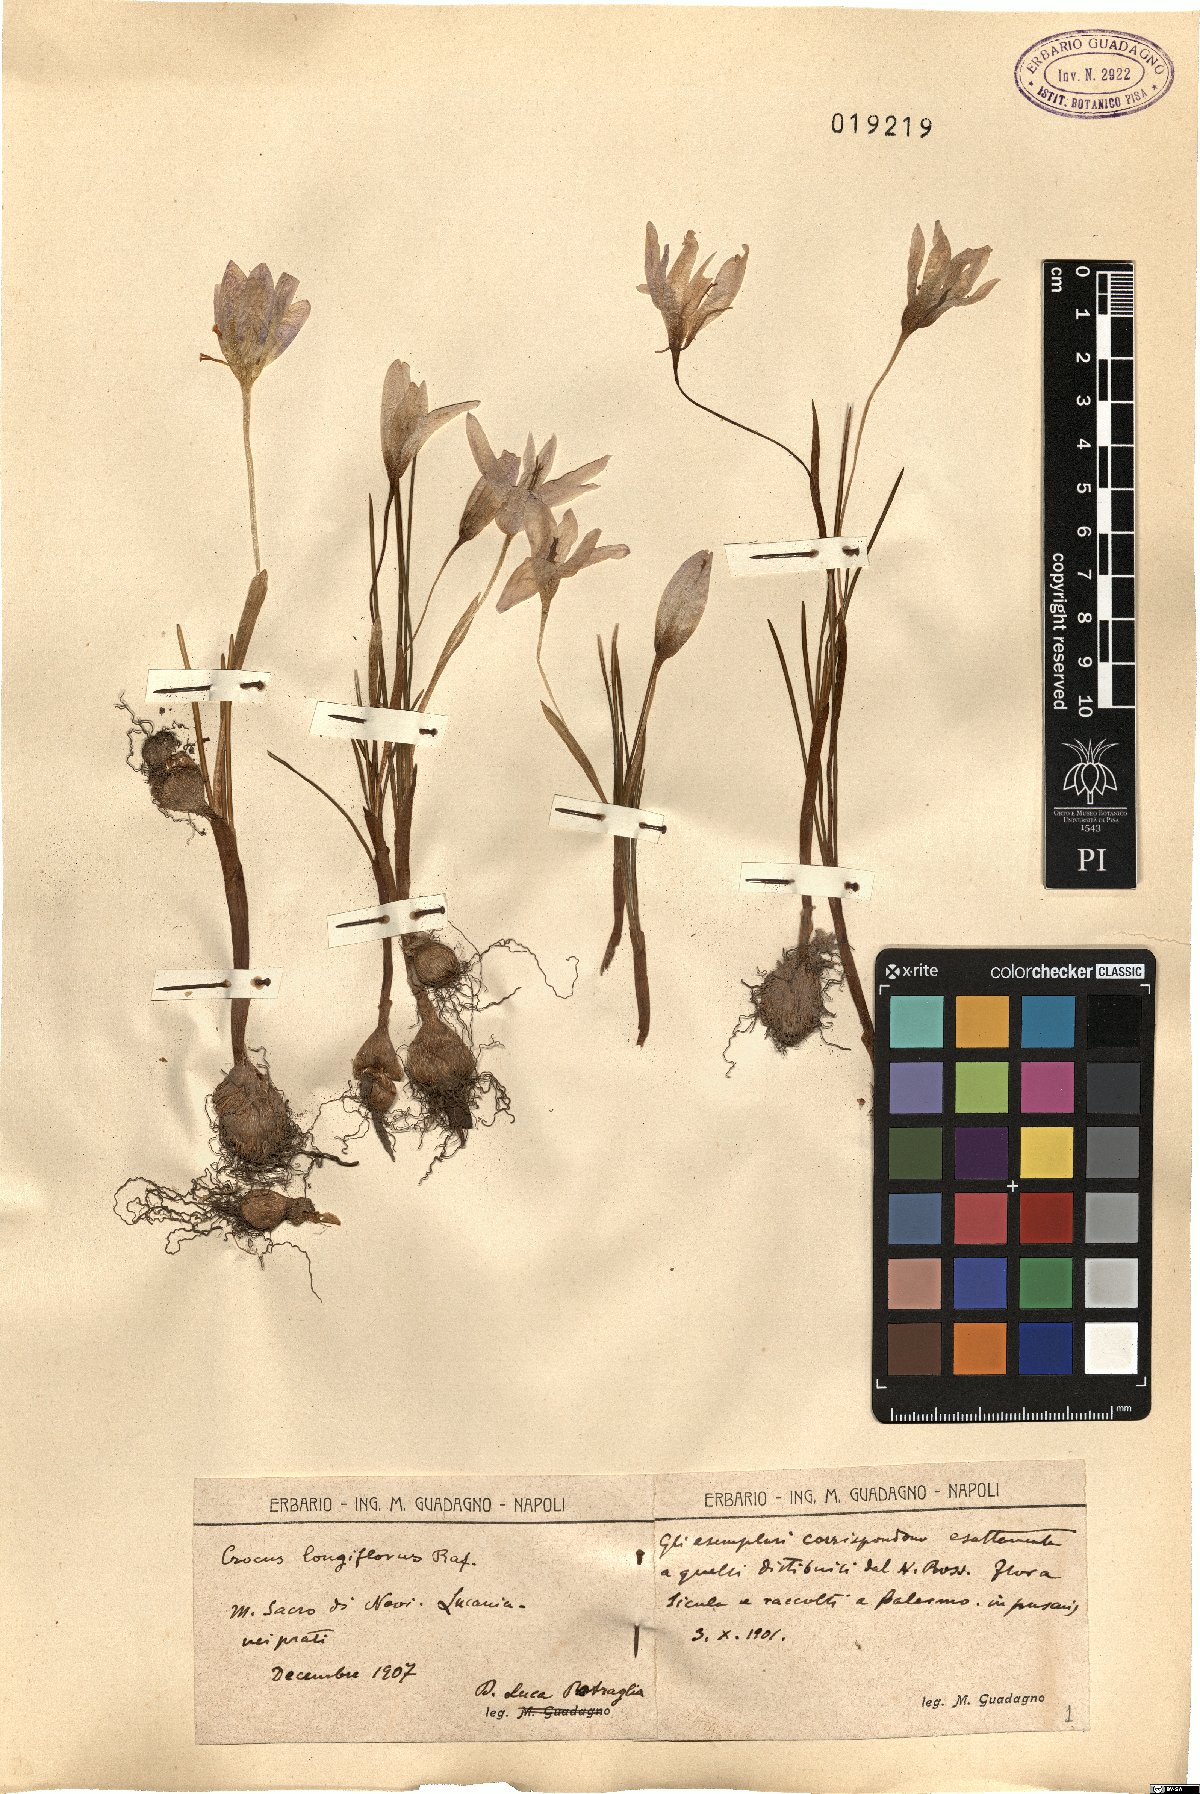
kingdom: Plantae
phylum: Tracheophyta
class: Liliopsida
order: Asparagales
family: Iridaceae
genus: Crocus
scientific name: Crocus longiflorus
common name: Italian crocus
